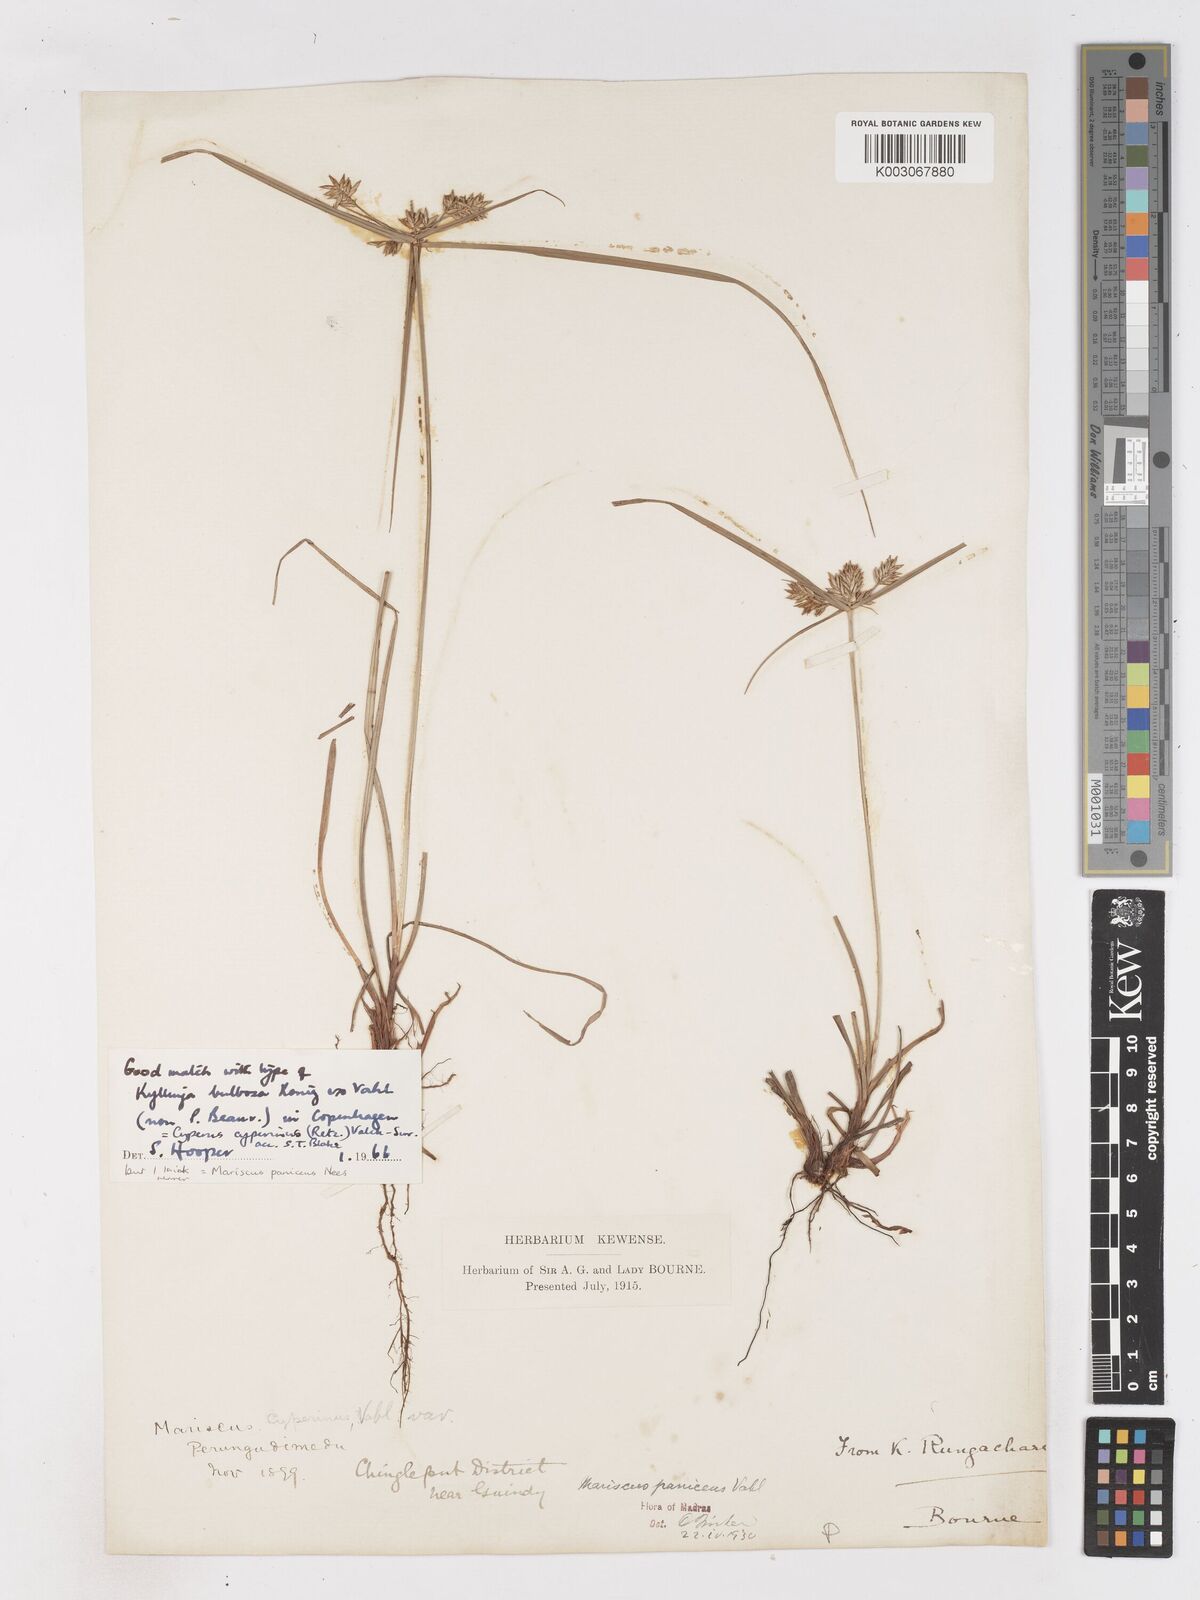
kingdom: Plantae
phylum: Tracheophyta
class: Liliopsida
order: Poales
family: Cyperaceae
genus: Cyperus
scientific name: Cyperus
